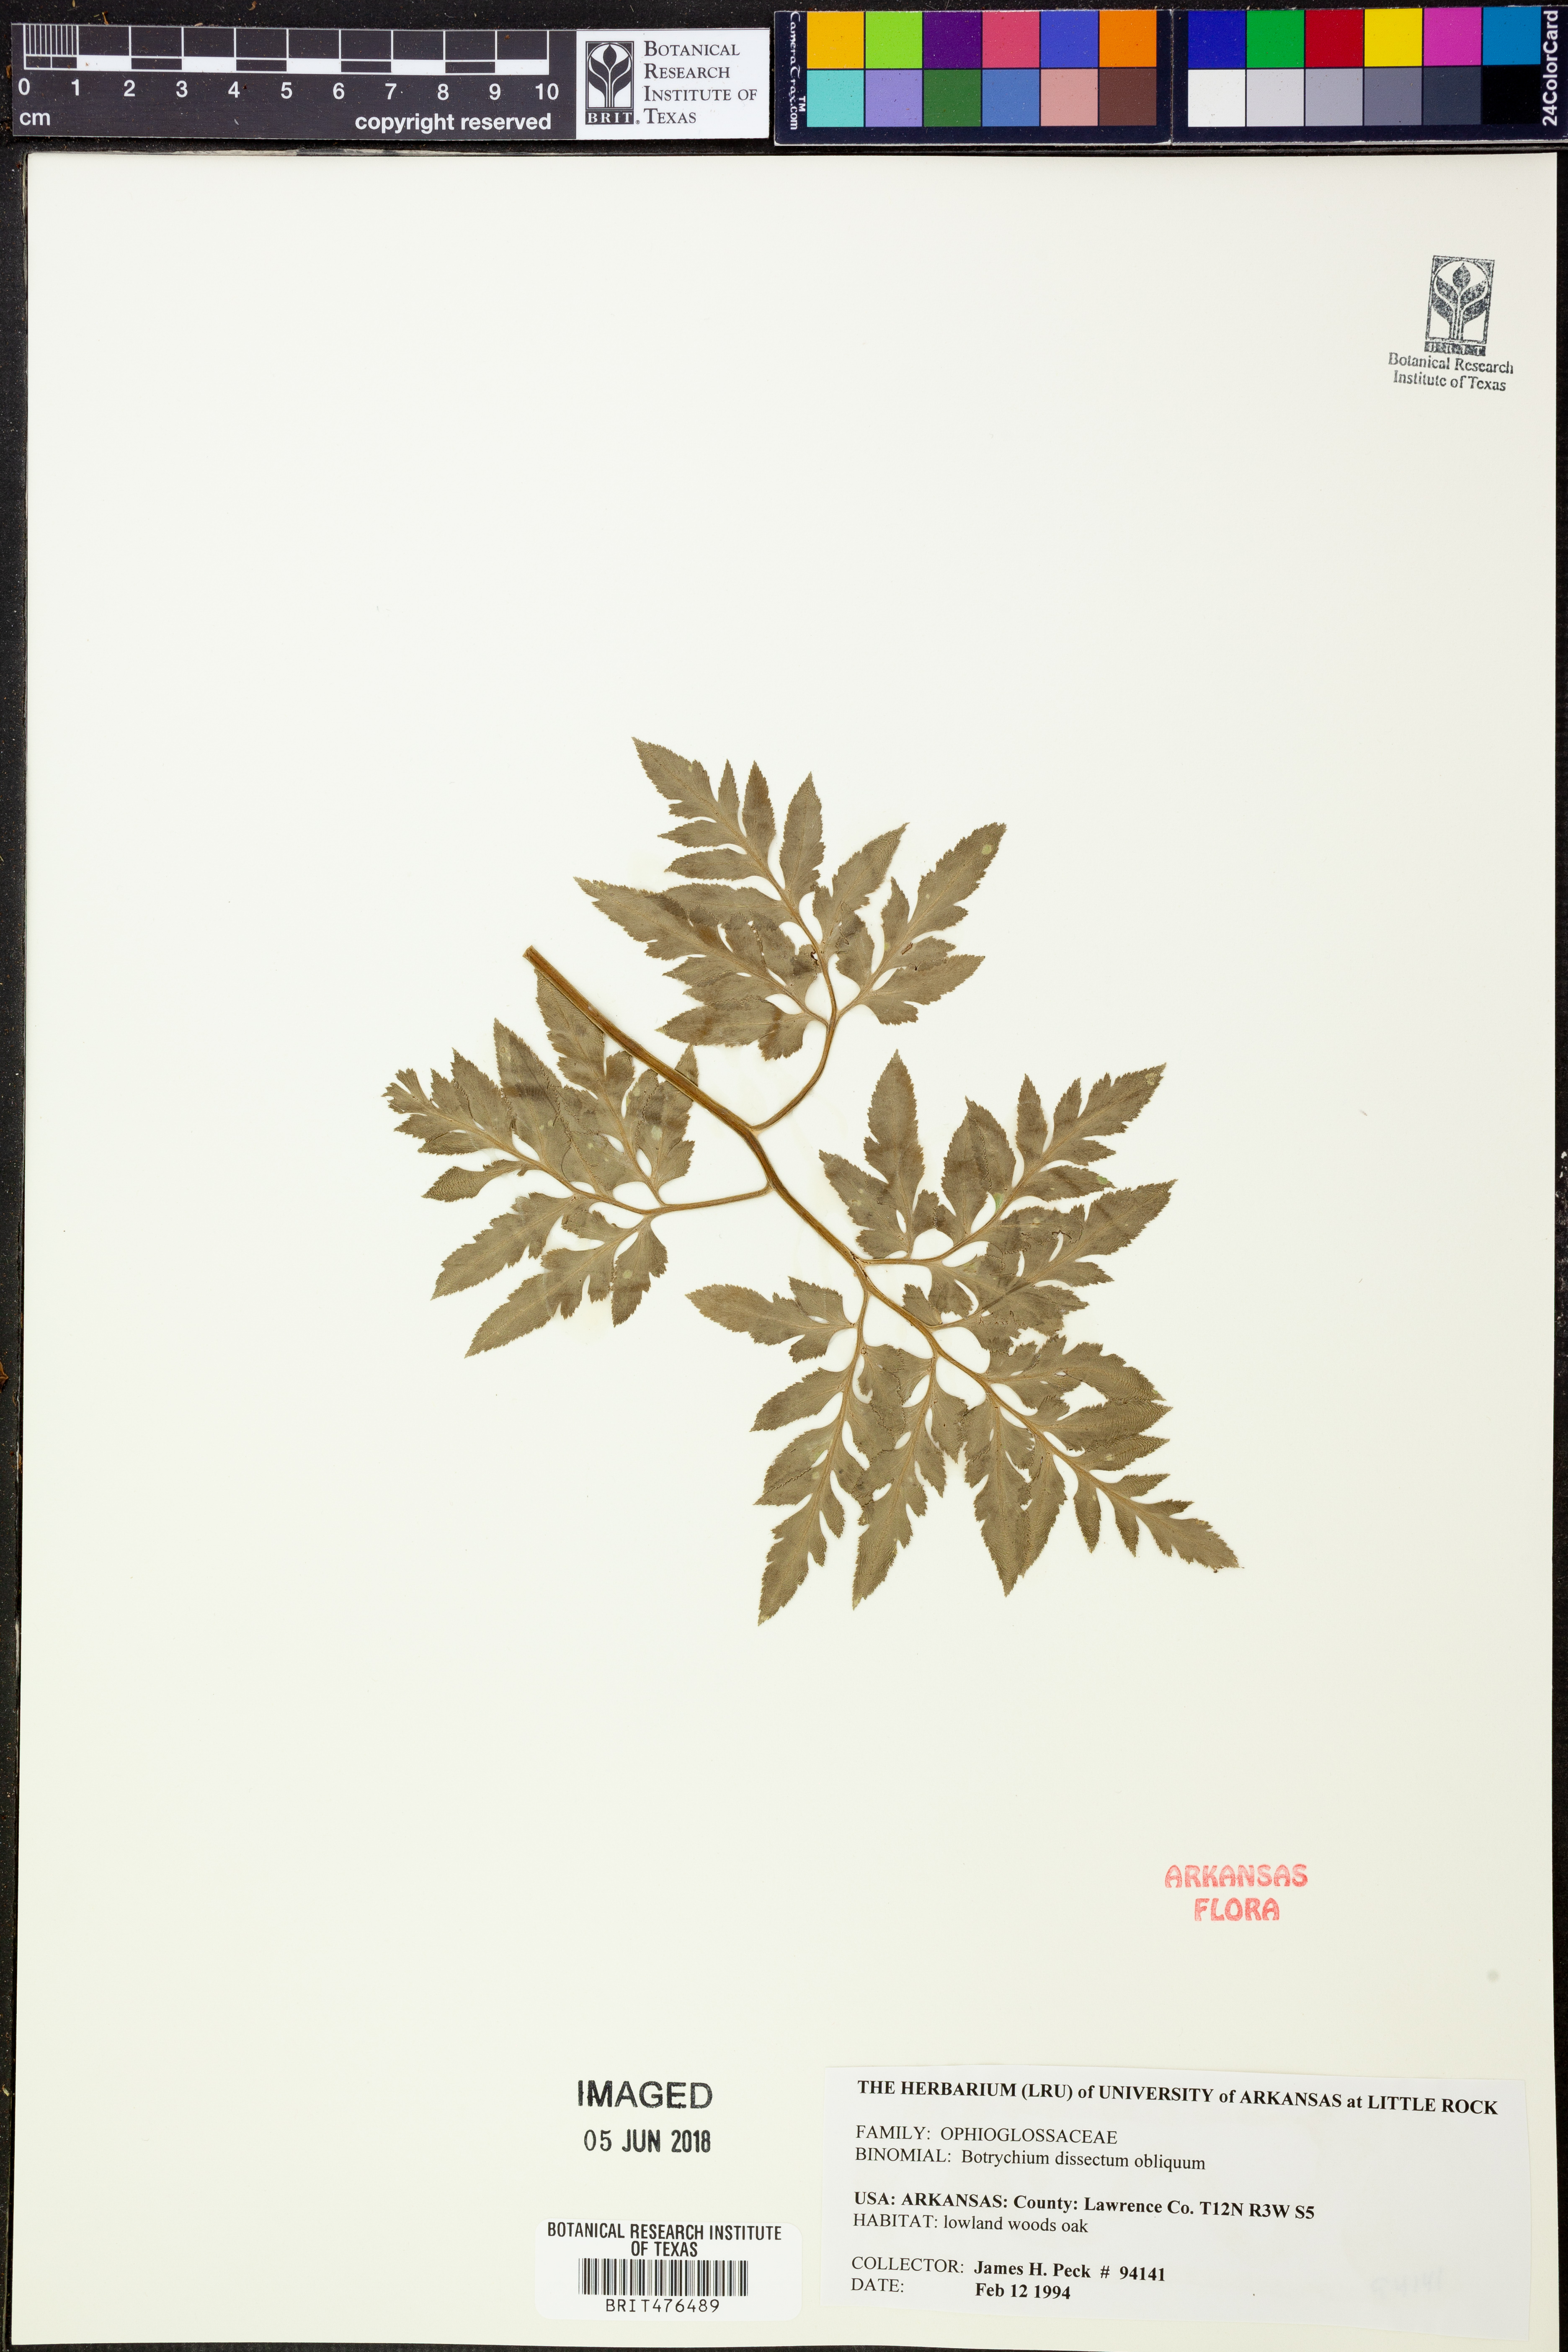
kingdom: Plantae
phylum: Tracheophyta
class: Polypodiopsida
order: Ophioglossales
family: Ophioglossaceae
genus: Sceptridium
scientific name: Sceptridium dissectum
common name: Cut-leaved grapefern
